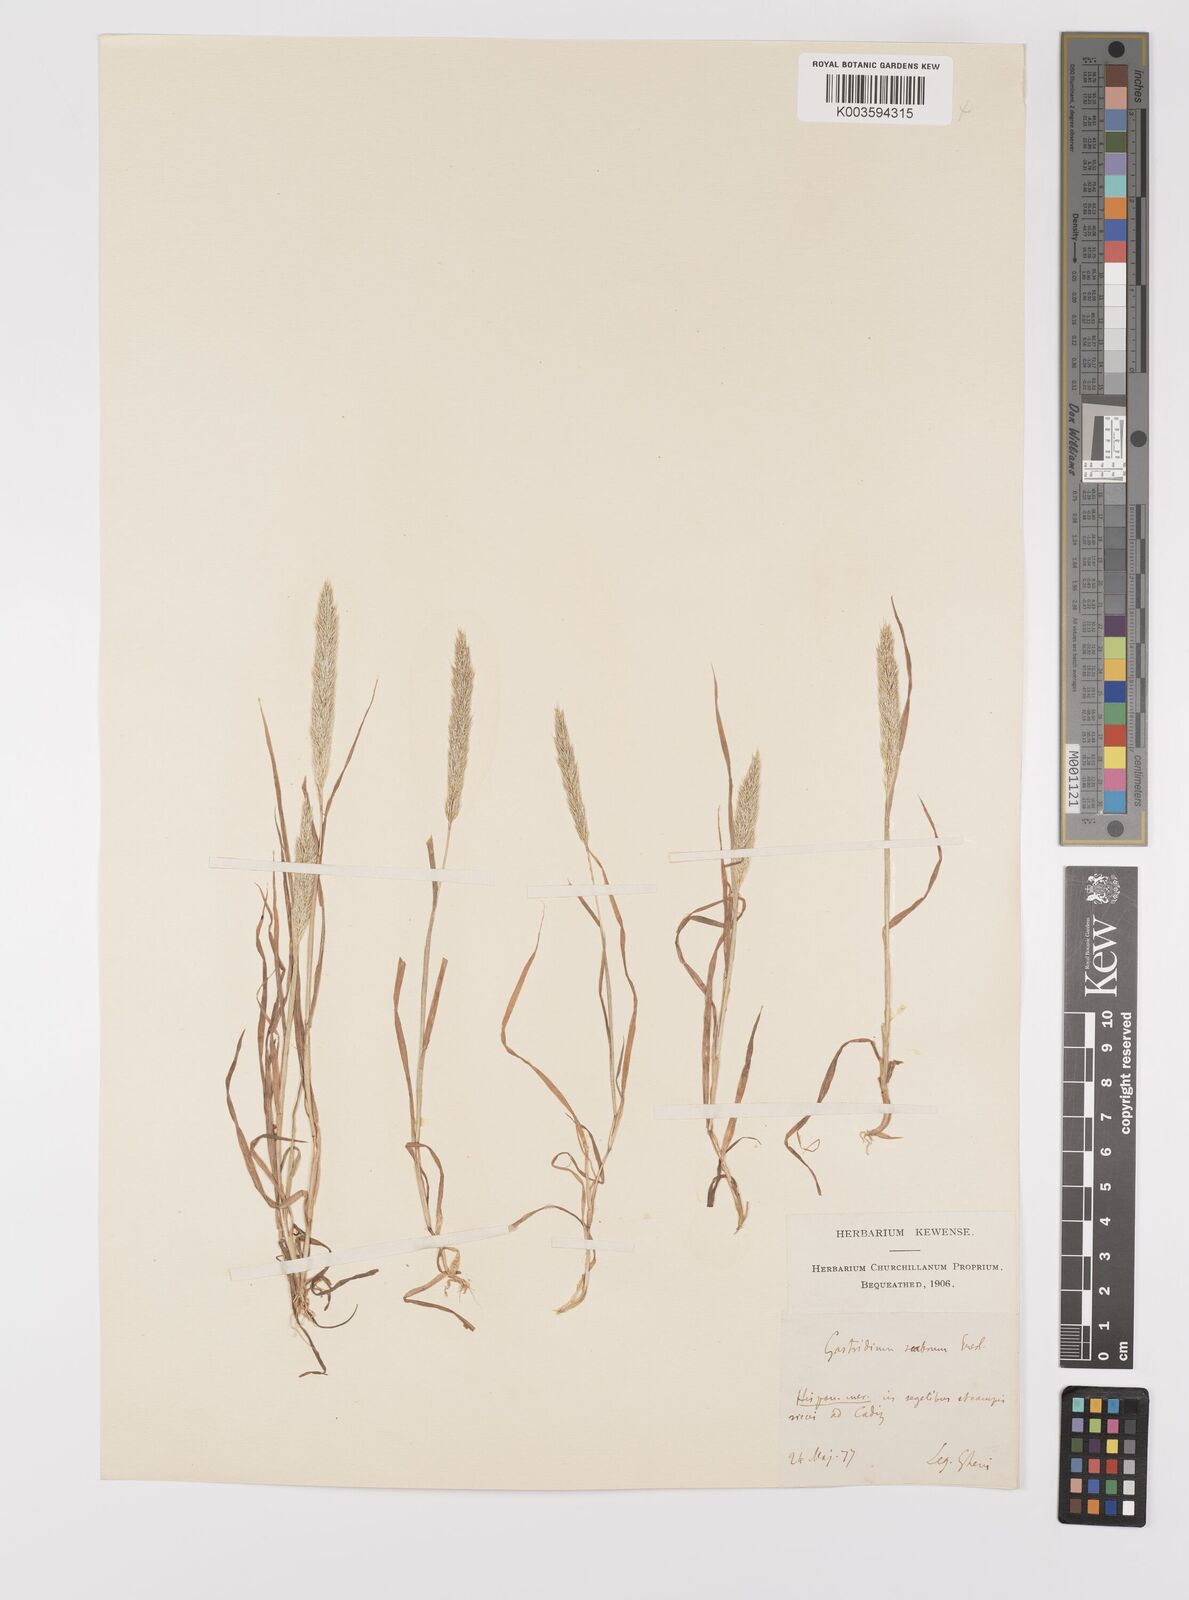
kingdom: Plantae
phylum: Tracheophyta
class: Liliopsida
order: Poales
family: Poaceae
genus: Gastridium
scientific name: Gastridium ventricosum
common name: Nit-grass
